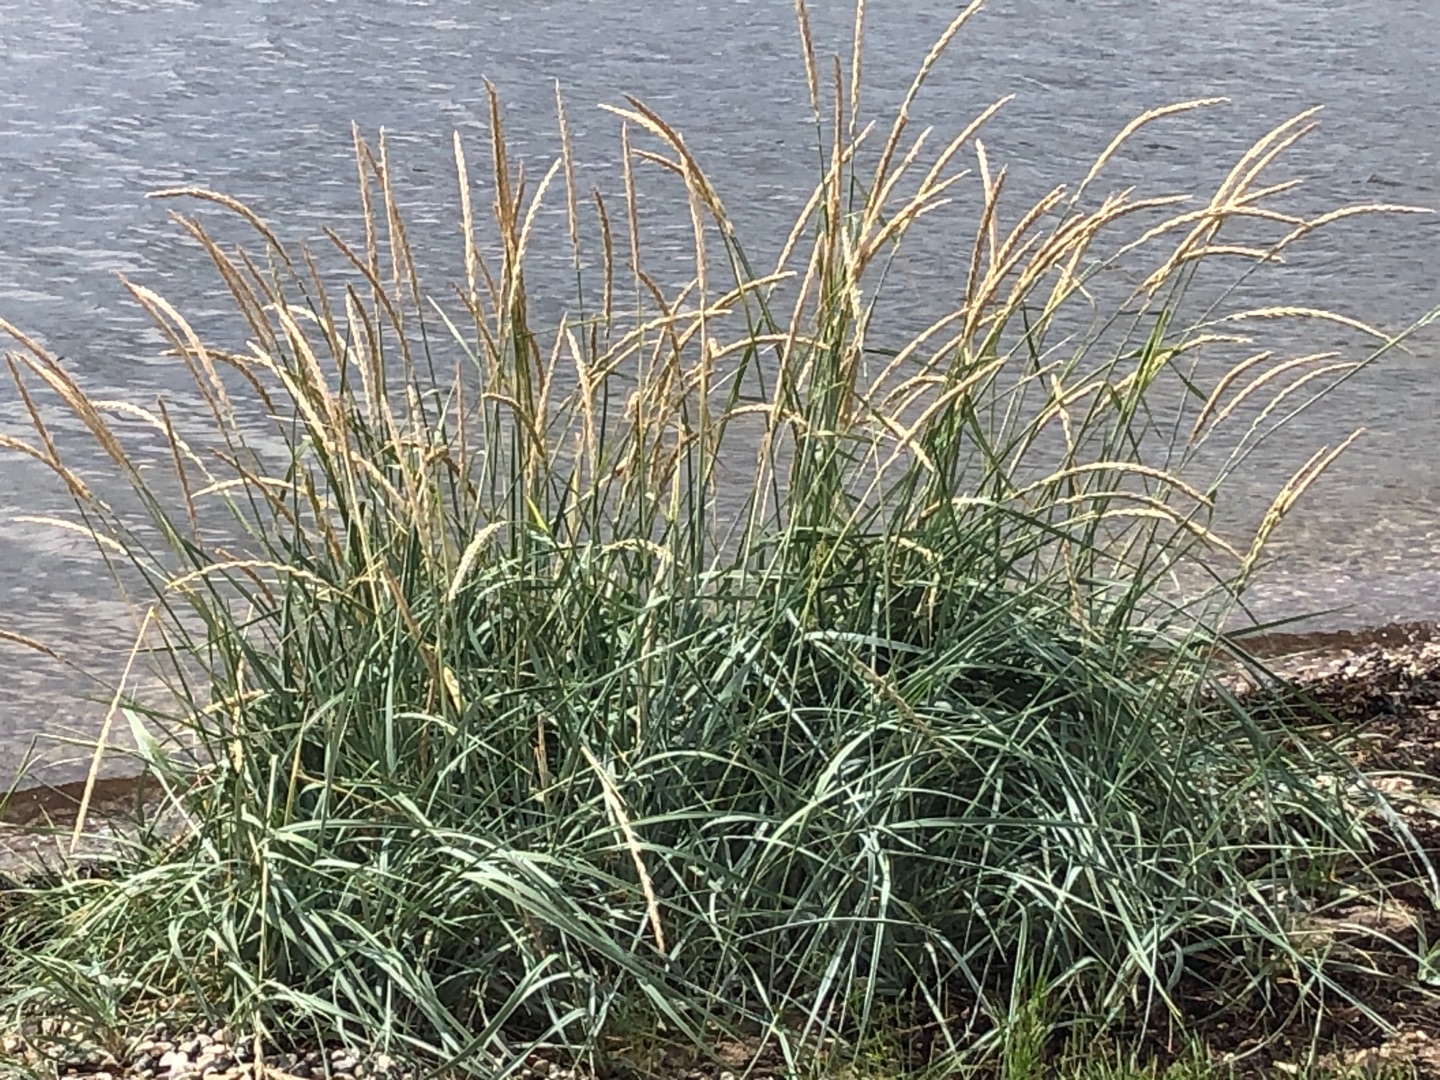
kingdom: Plantae
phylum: Tracheophyta
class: Liliopsida
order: Poales
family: Poaceae
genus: Leymus
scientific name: Leymus arenarius
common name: Marehalm
